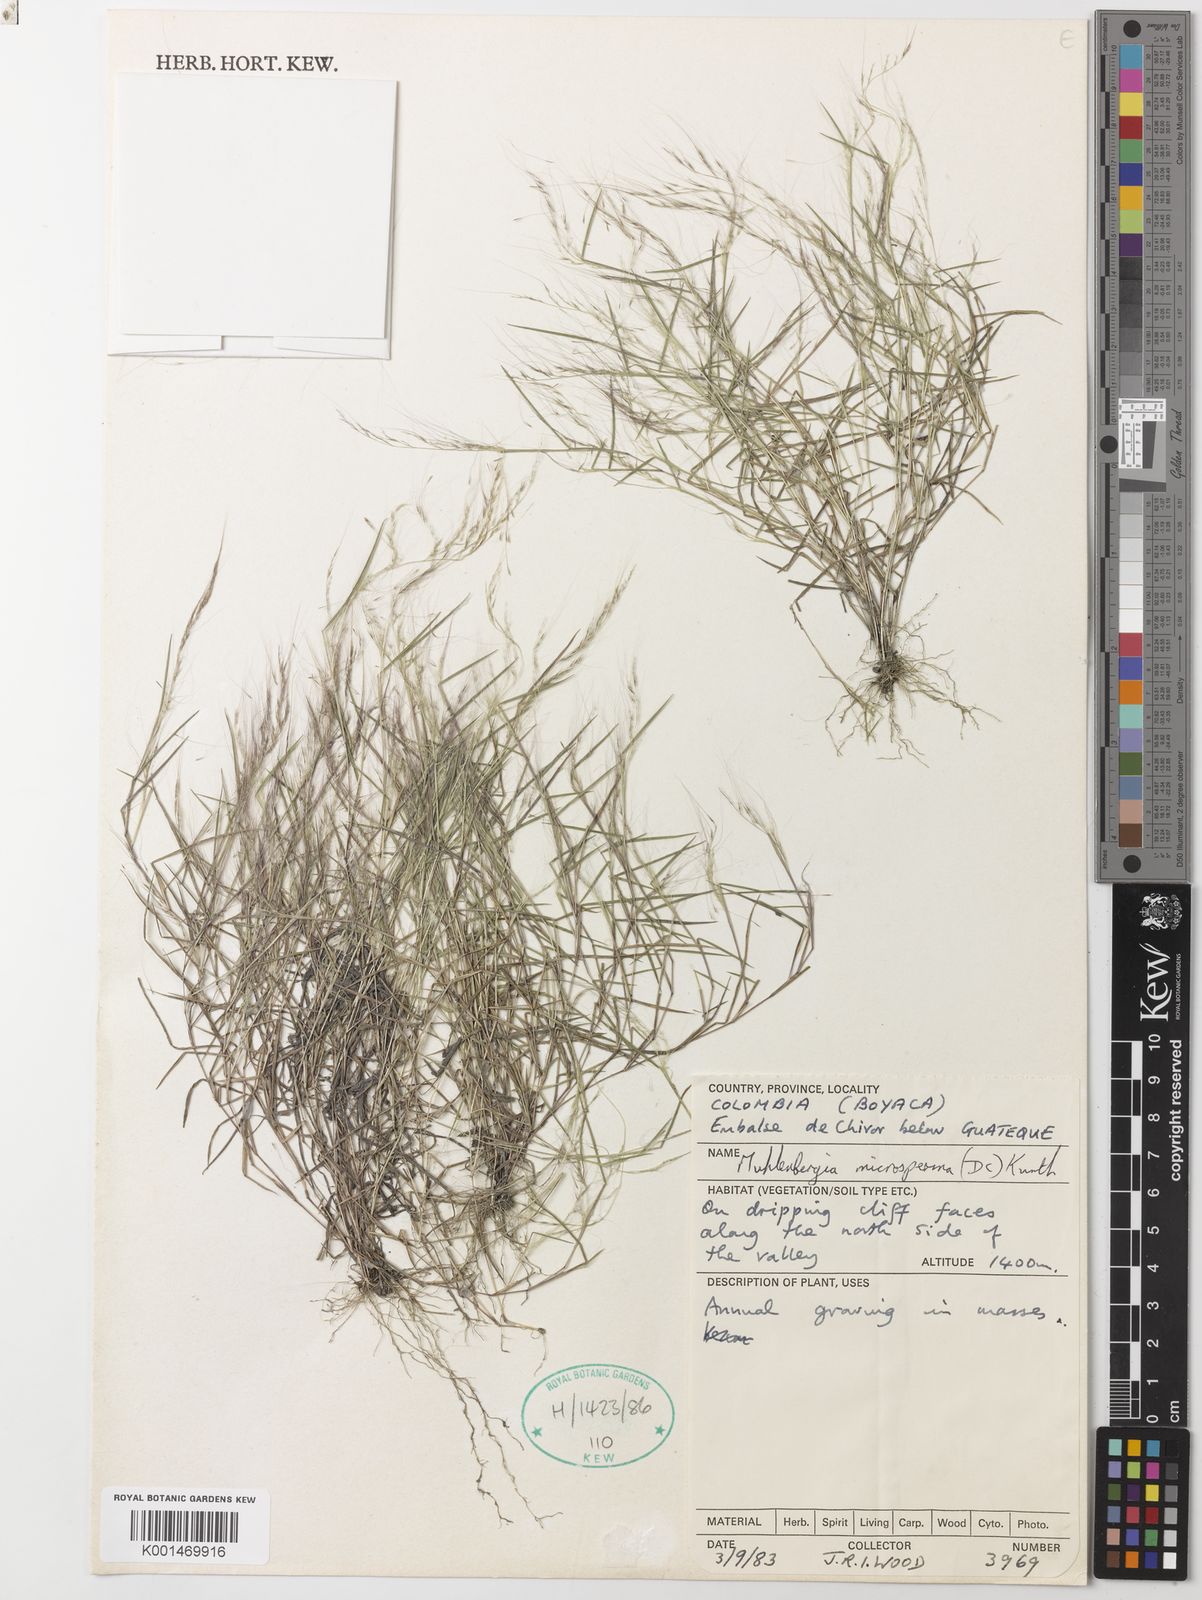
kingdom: Plantae
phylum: Tracheophyta
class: Liliopsida
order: Poales
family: Poaceae
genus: Muhlenbergia
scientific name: Muhlenbergia
